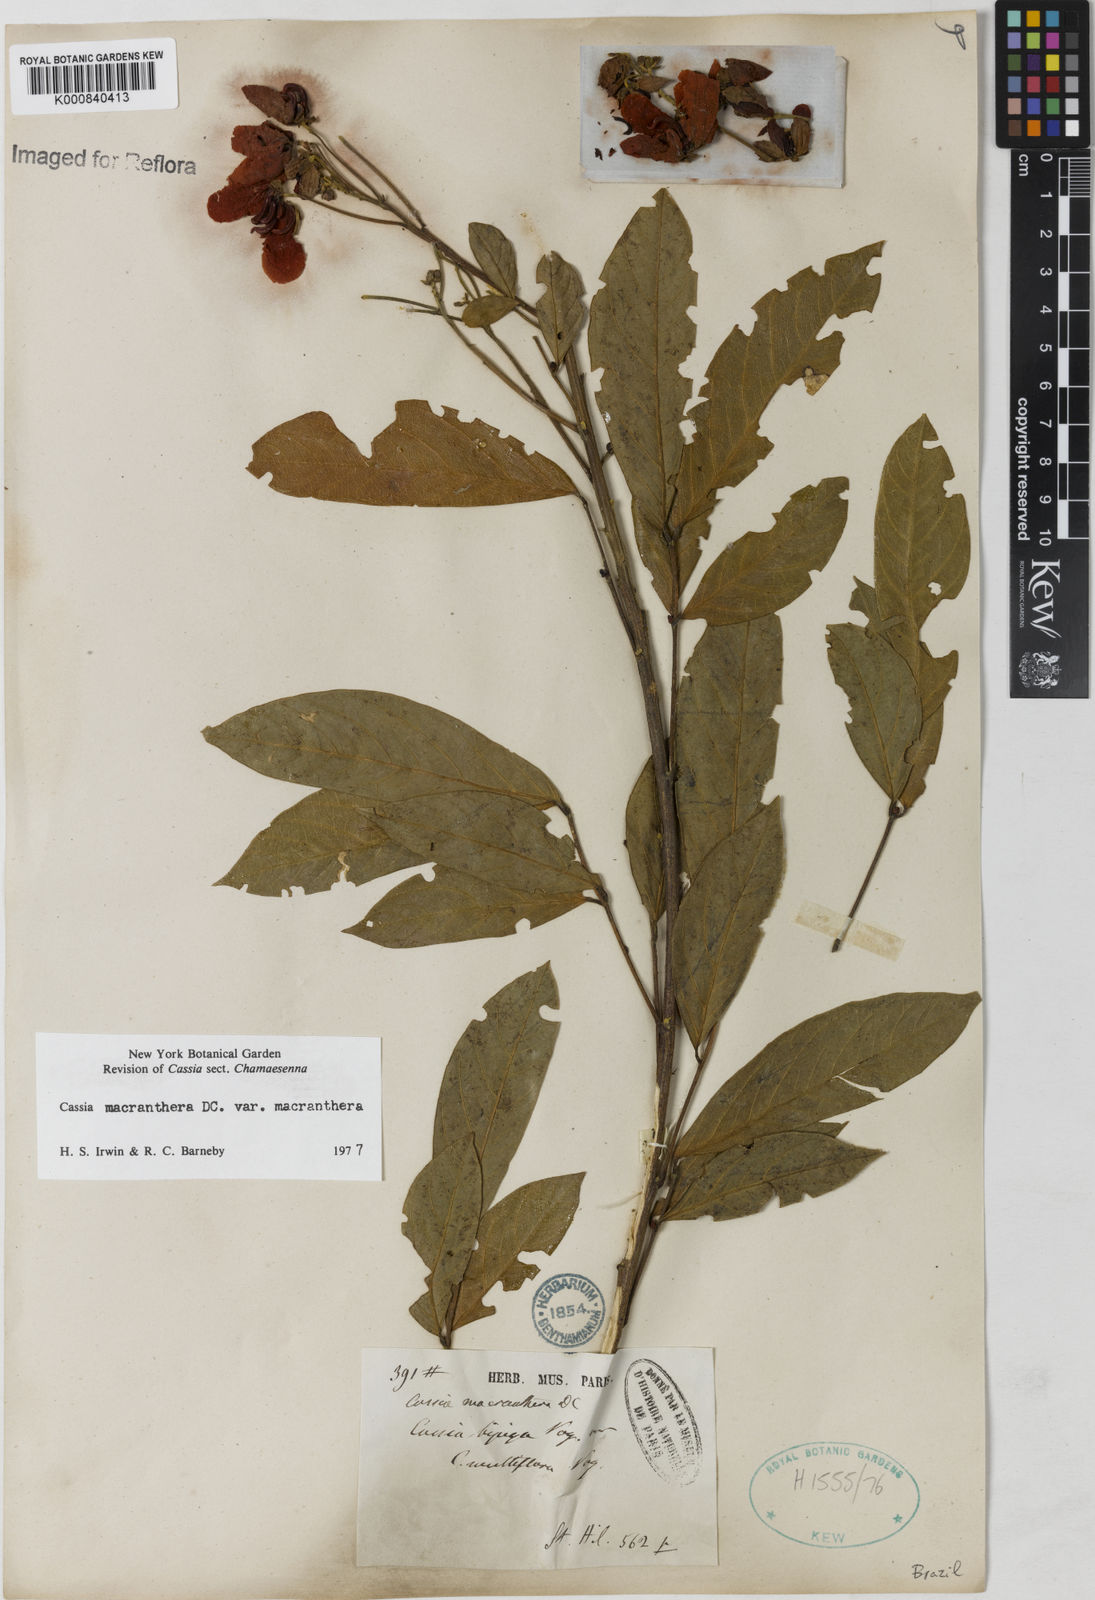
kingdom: Plantae
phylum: Tracheophyta
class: Magnoliopsida
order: Fabales
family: Fabaceae
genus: Senna
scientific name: Senna macranthera
